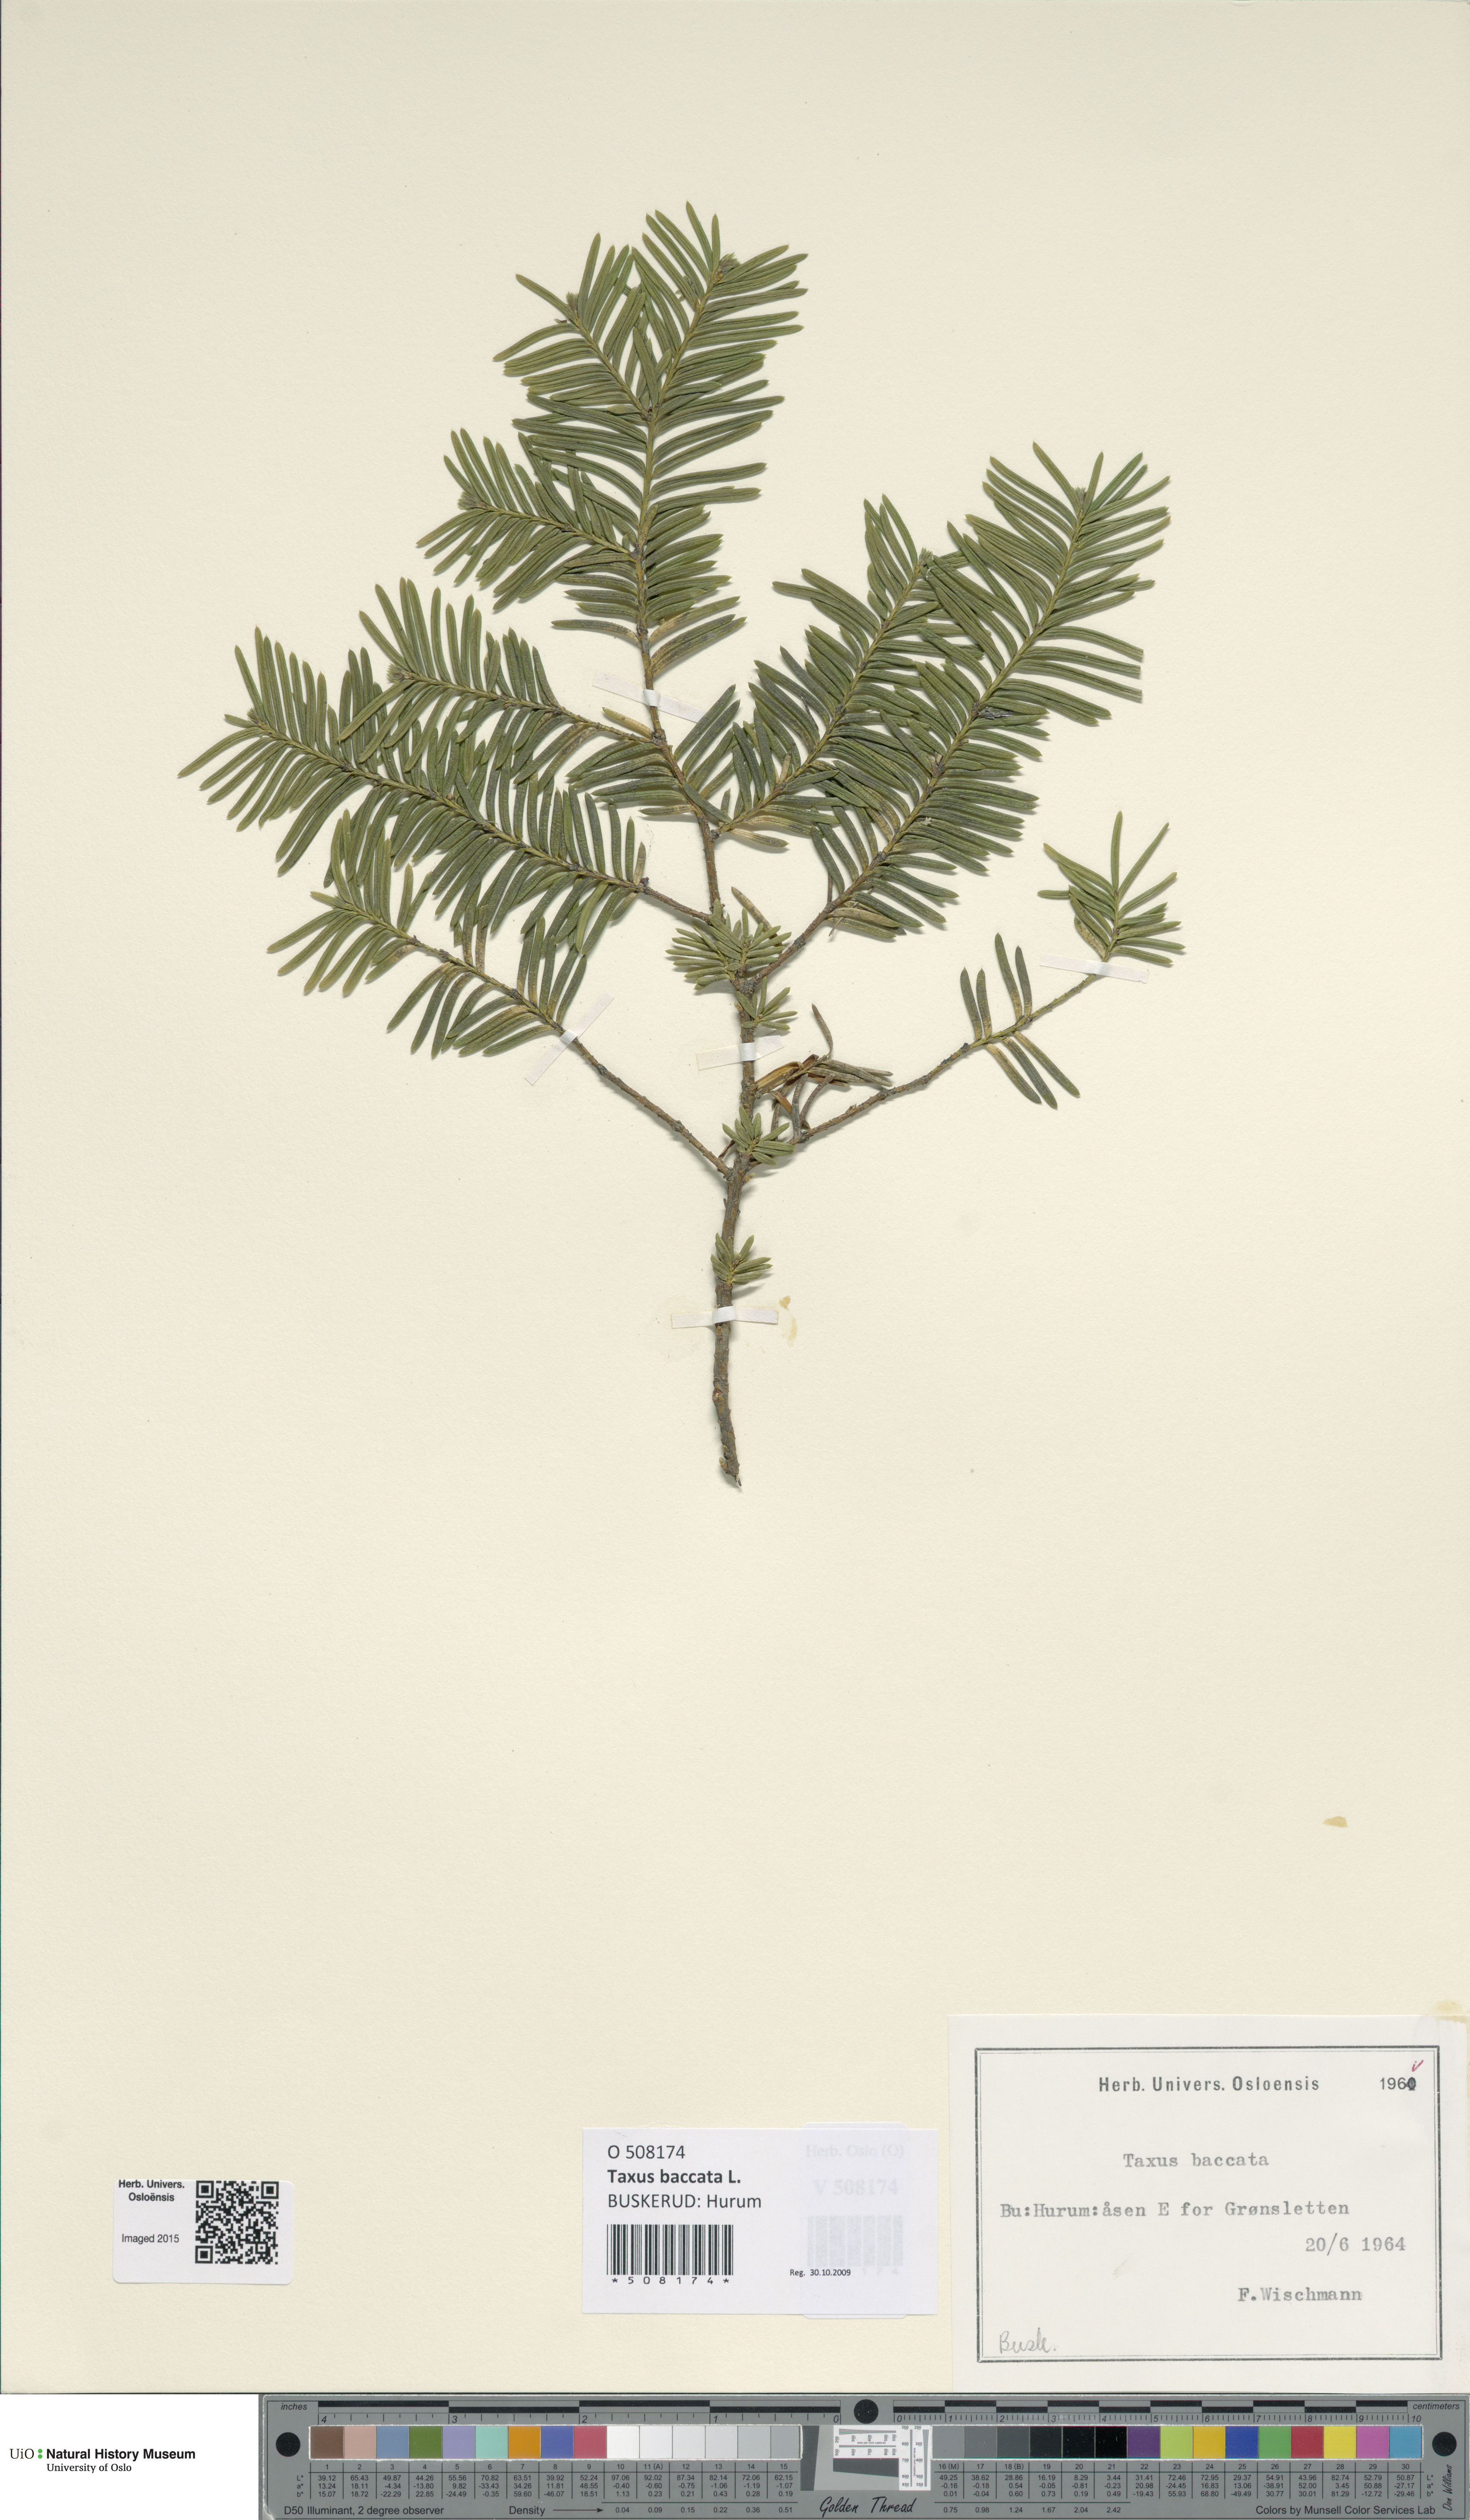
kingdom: Plantae
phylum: Tracheophyta
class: Pinopsida
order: Pinales
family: Taxaceae
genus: Taxus
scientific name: Taxus baccata
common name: Yew
